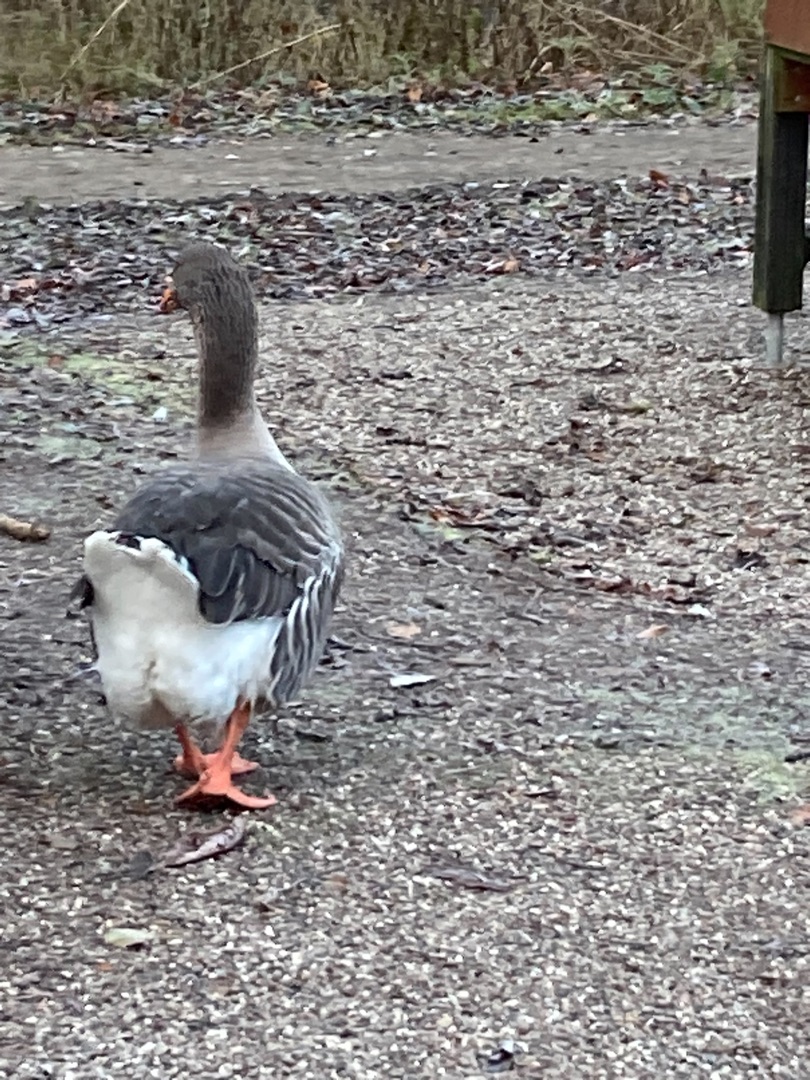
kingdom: Animalia
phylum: Chordata
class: Aves
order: Anseriformes
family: Anatidae
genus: Anser
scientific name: Anser anser
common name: Grågås
